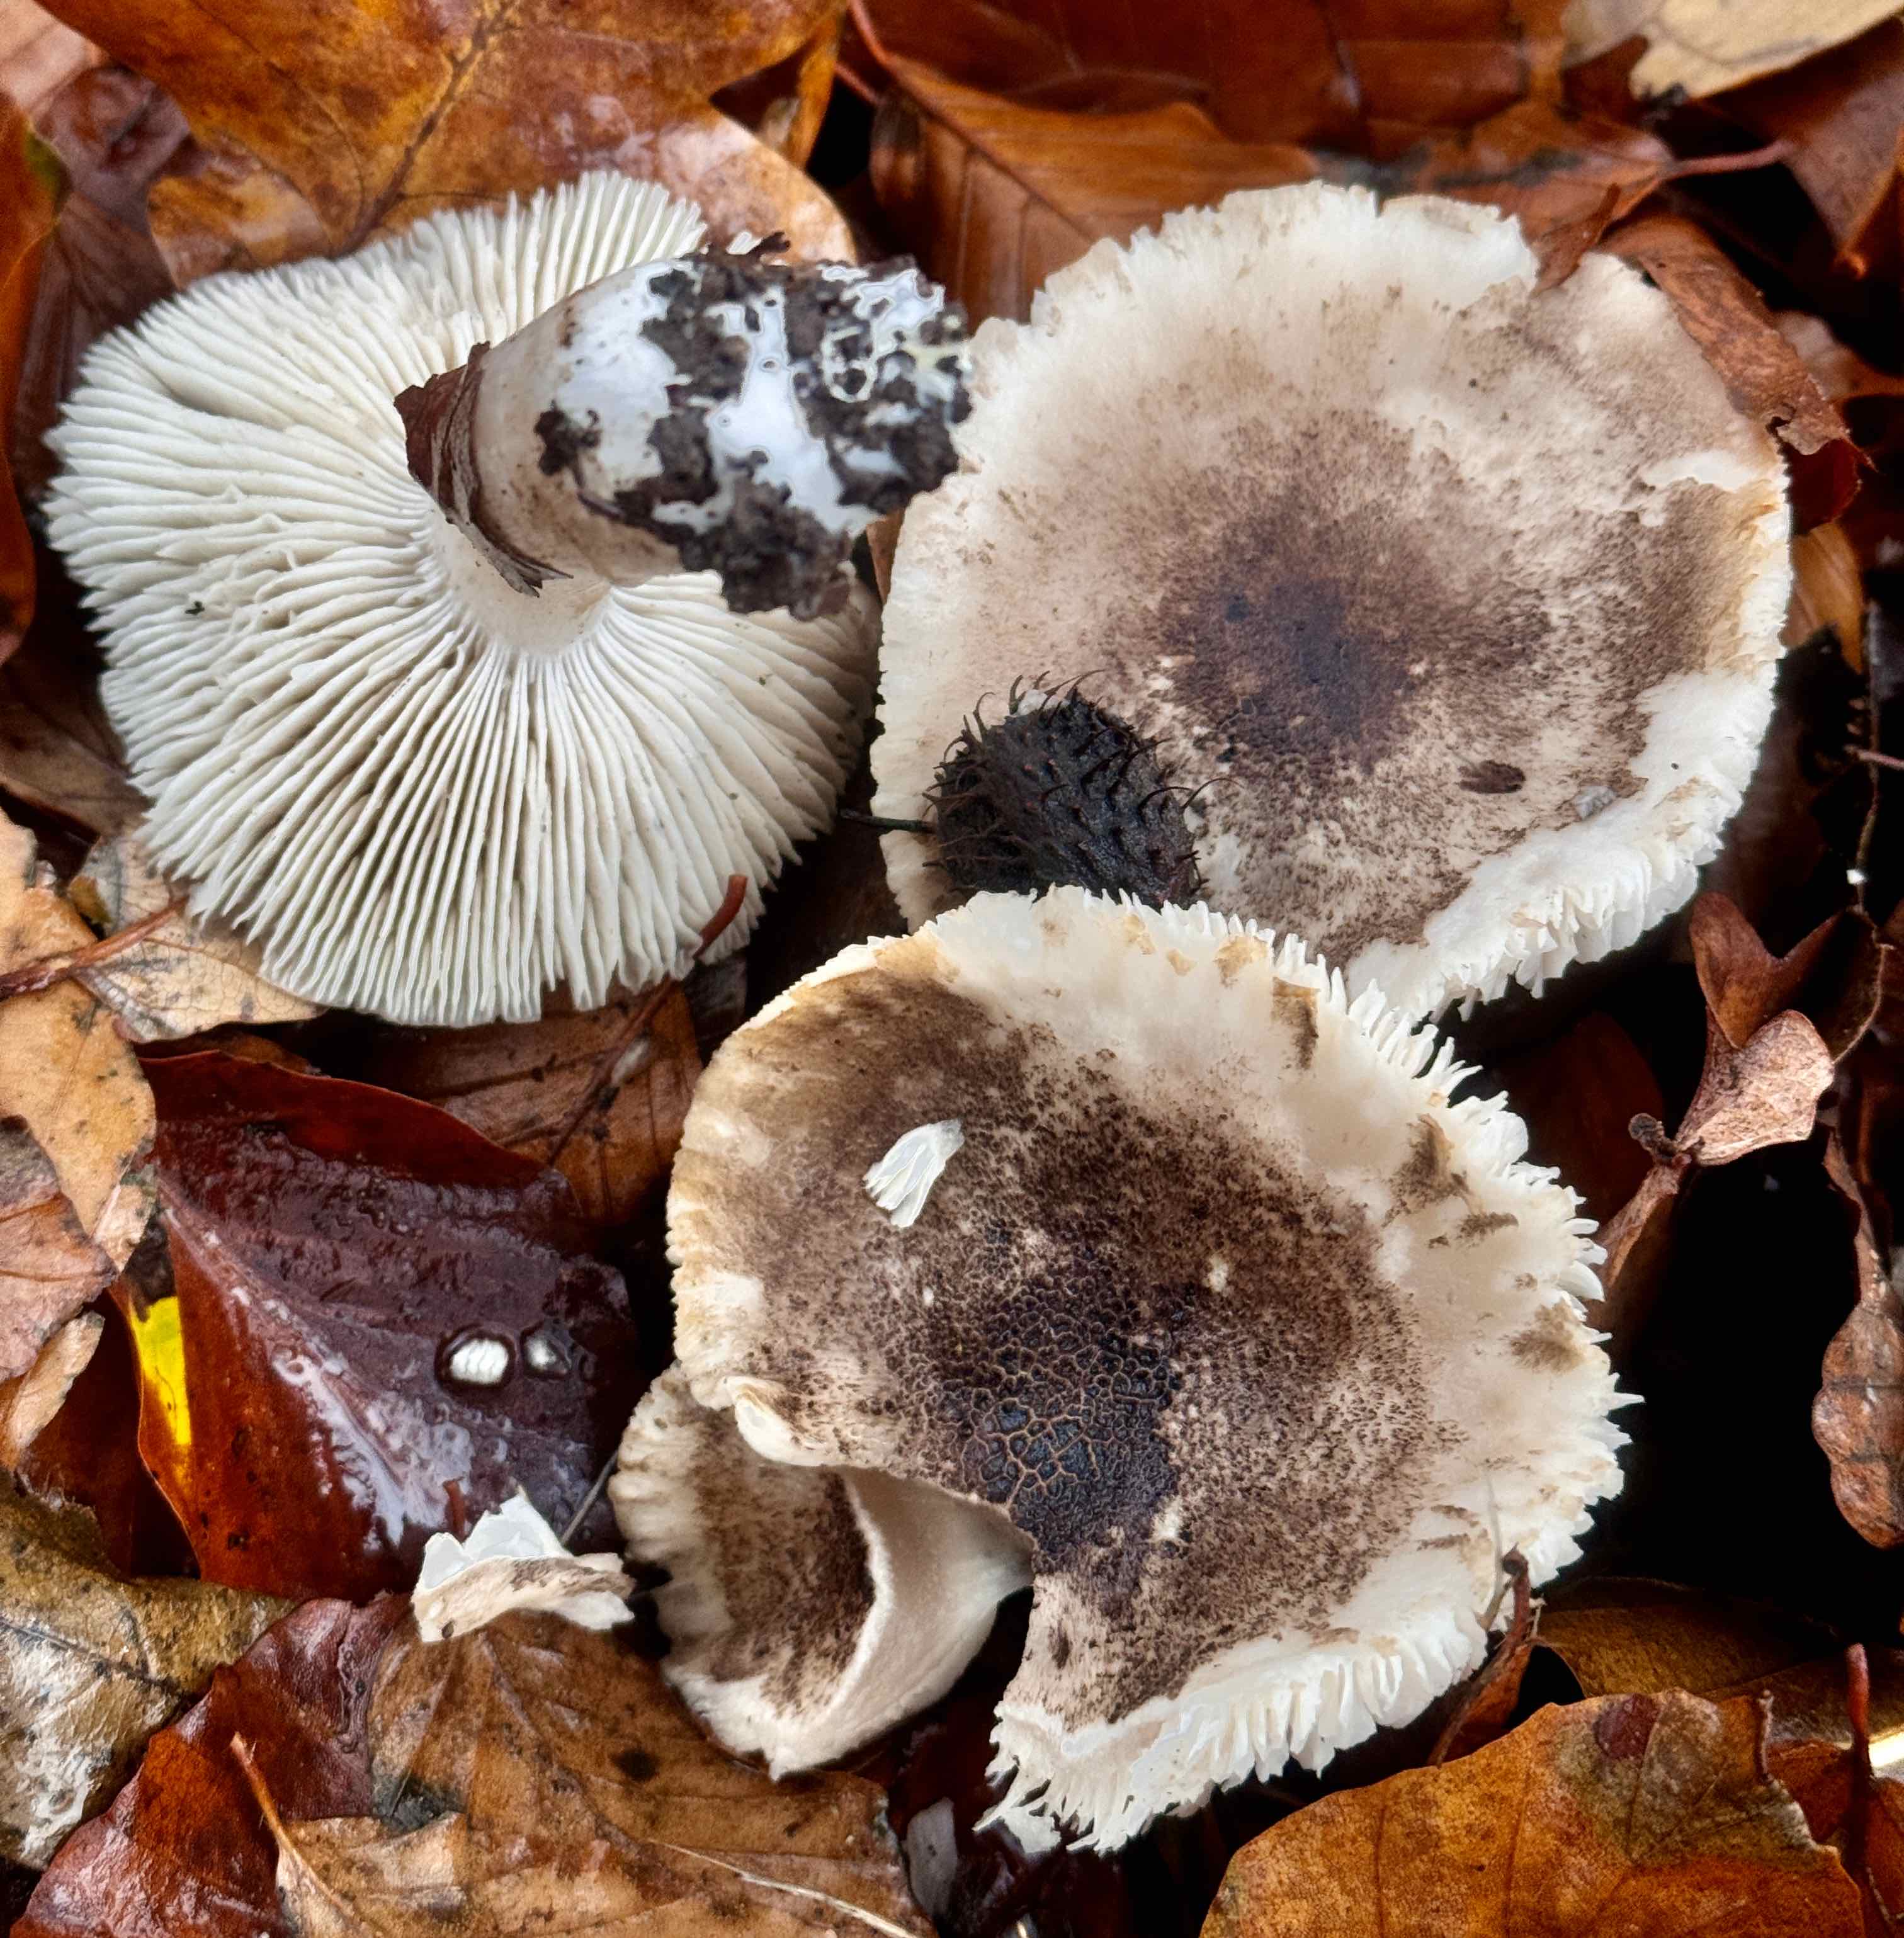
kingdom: Fungi
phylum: Basidiomycota
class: Agaricomycetes
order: Agaricales
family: Tricholomataceae
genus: Tricholoma
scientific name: Tricholoma scalpturatum
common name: gulplettet ridderhat
